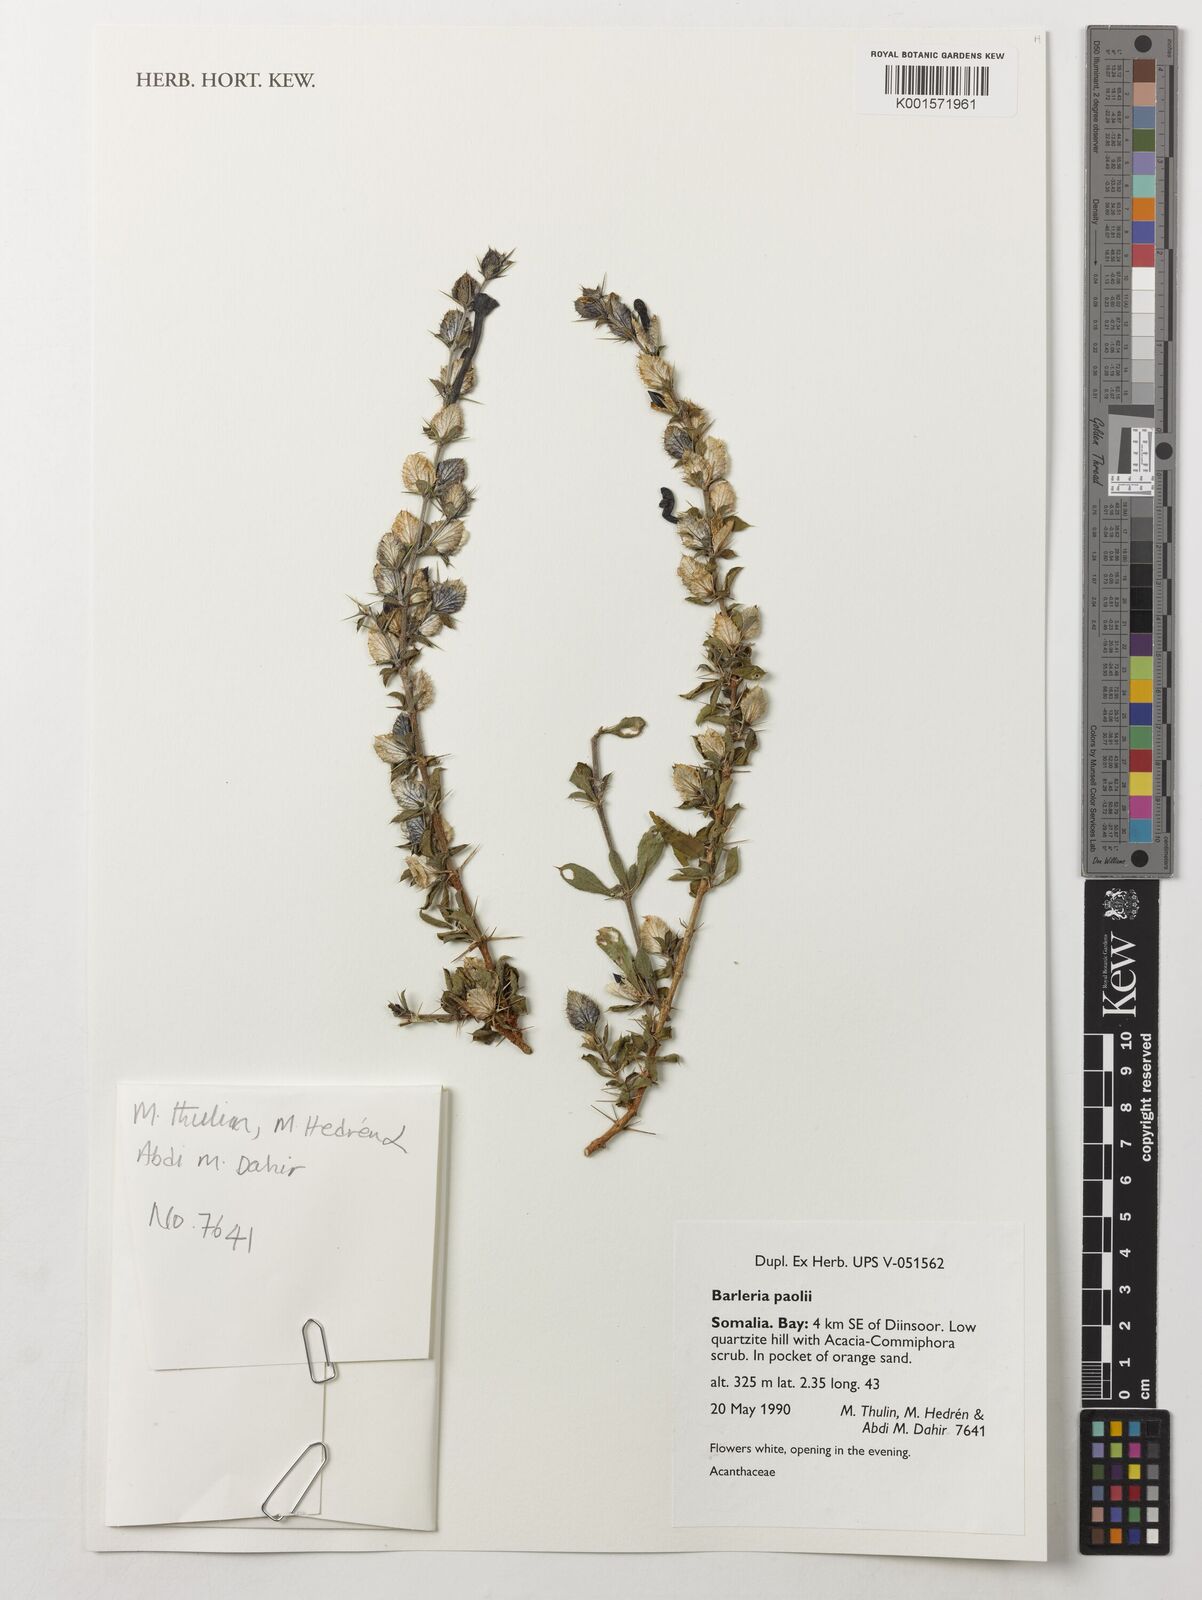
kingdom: Plantae
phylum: Tracheophyta
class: Magnoliopsida
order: Lamiales
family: Acanthaceae
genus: Barleria
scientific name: Barleria paolii
